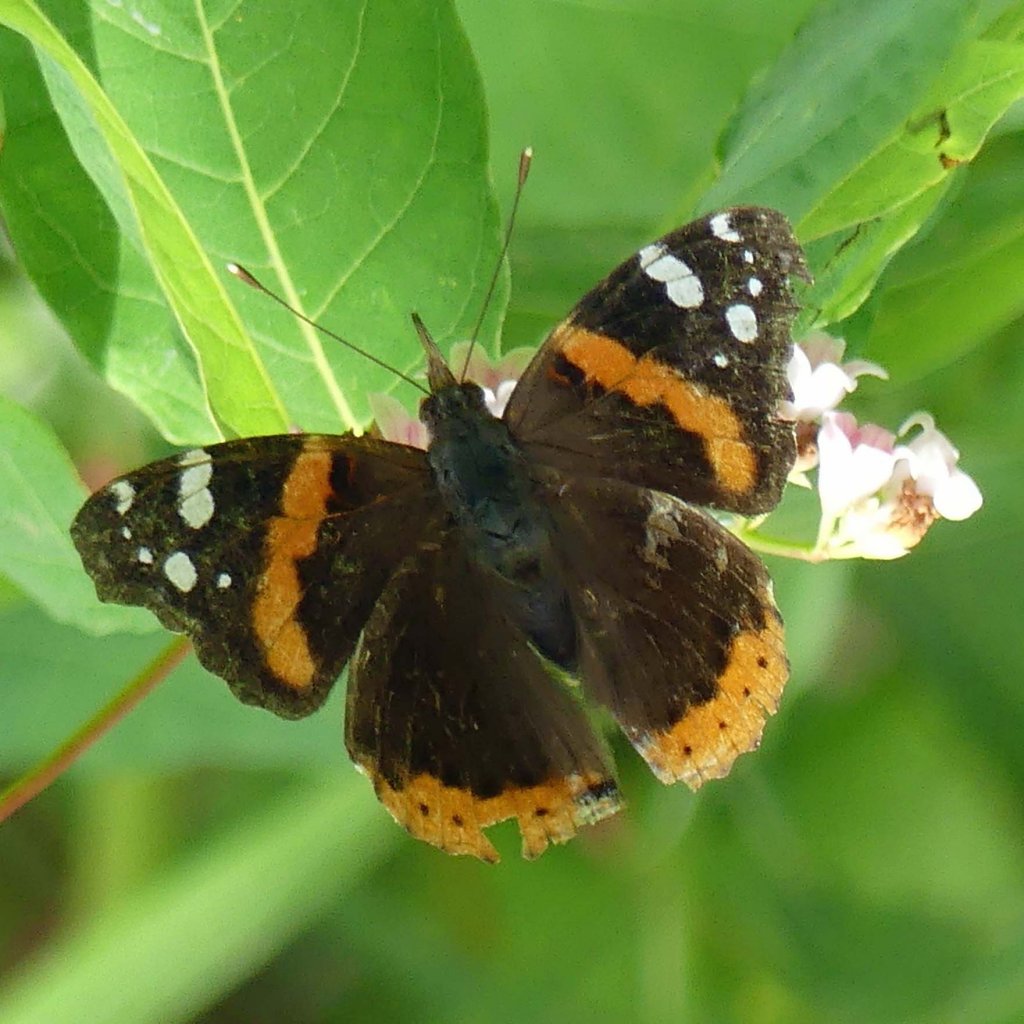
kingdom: Animalia
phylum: Arthropoda
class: Insecta
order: Lepidoptera
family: Nymphalidae
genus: Vanessa
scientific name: Vanessa atalanta
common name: Red Admiral
